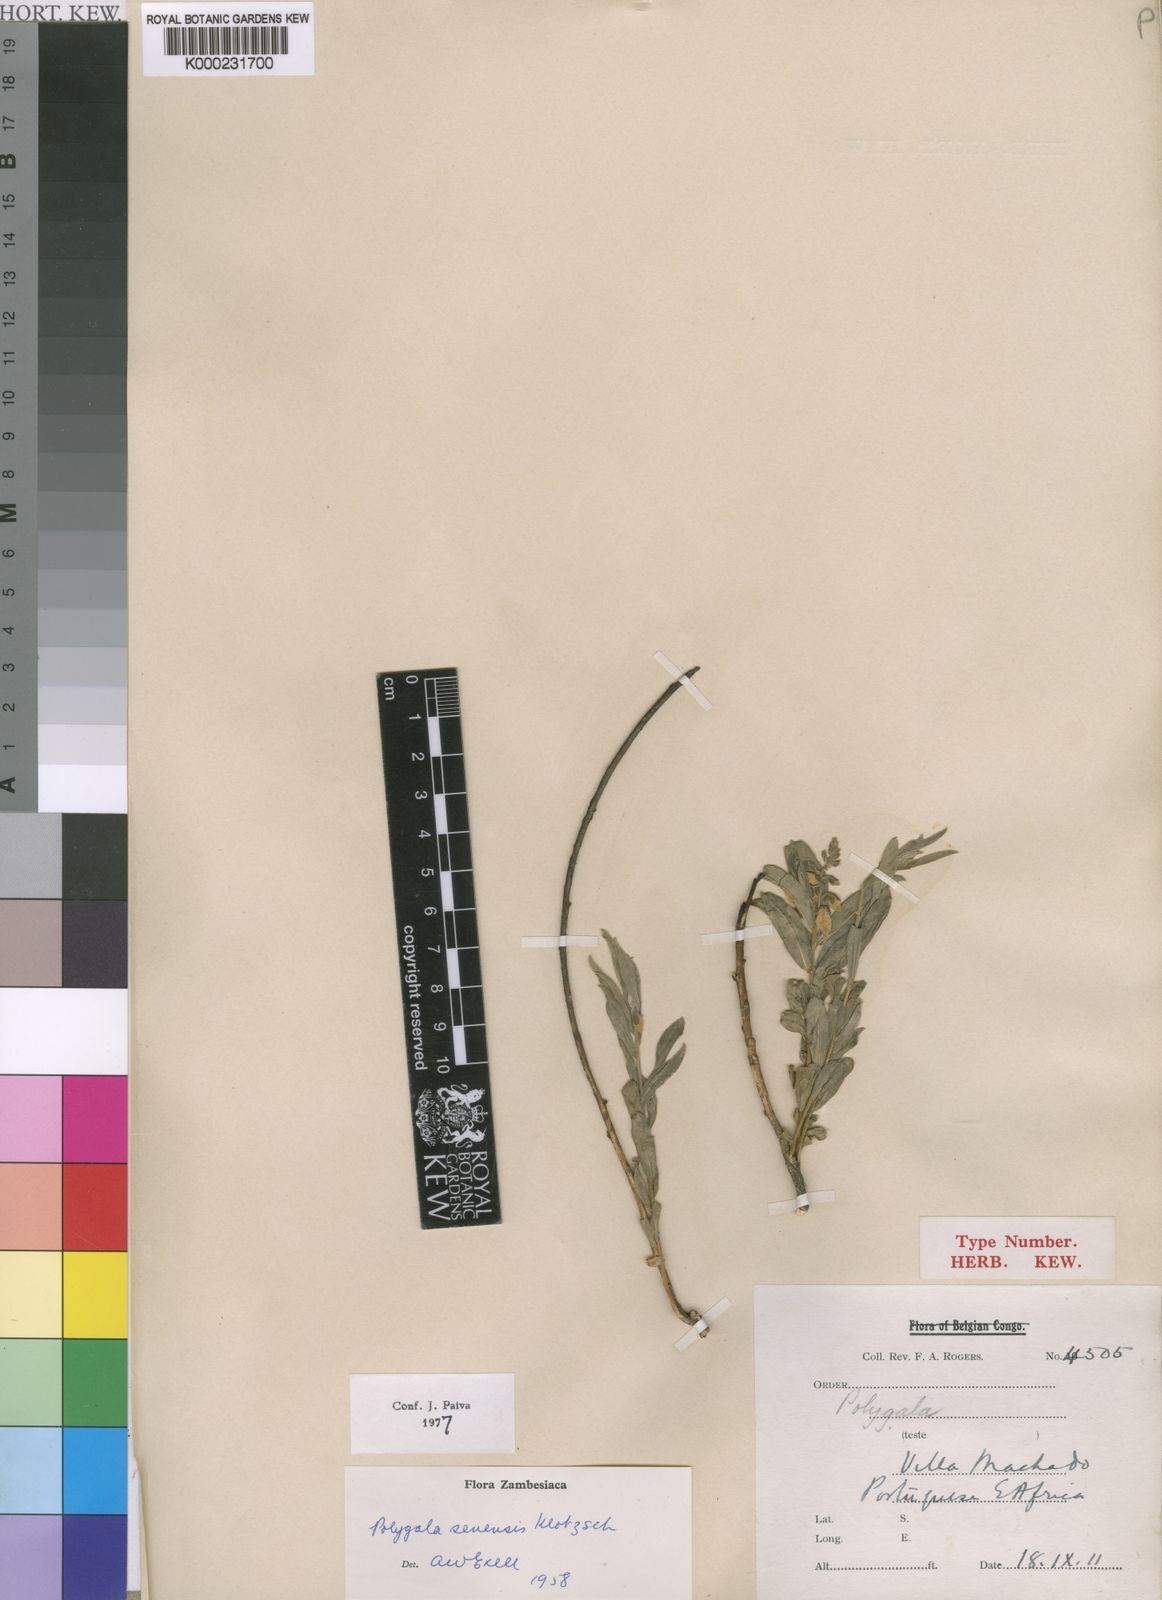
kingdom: Plantae
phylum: Tracheophyta
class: Magnoliopsida
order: Fabales
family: Polygalaceae
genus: Polygala
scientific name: Polygala
